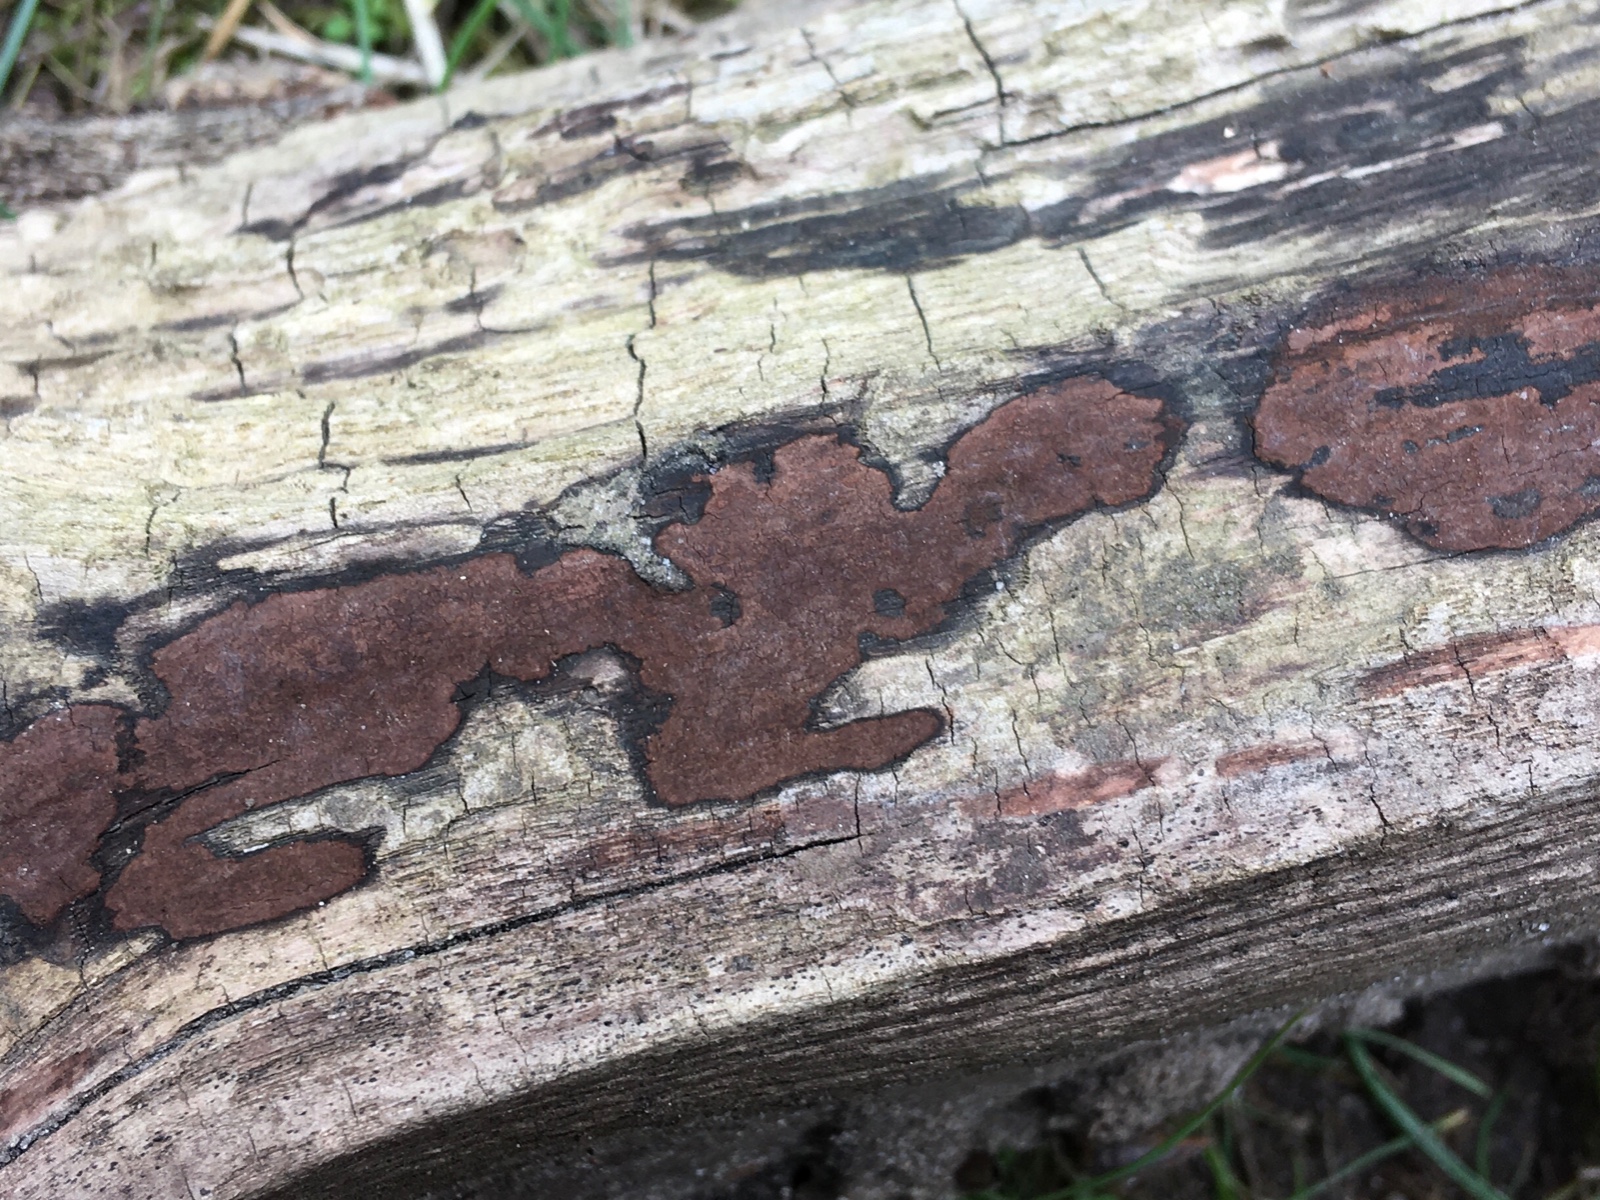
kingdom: Fungi
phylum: Ascomycota
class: Sordariomycetes
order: Xylariales
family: Hypoxylaceae
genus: Hypoxylon
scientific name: Hypoxylon petriniae
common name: nedsænket kulbær
